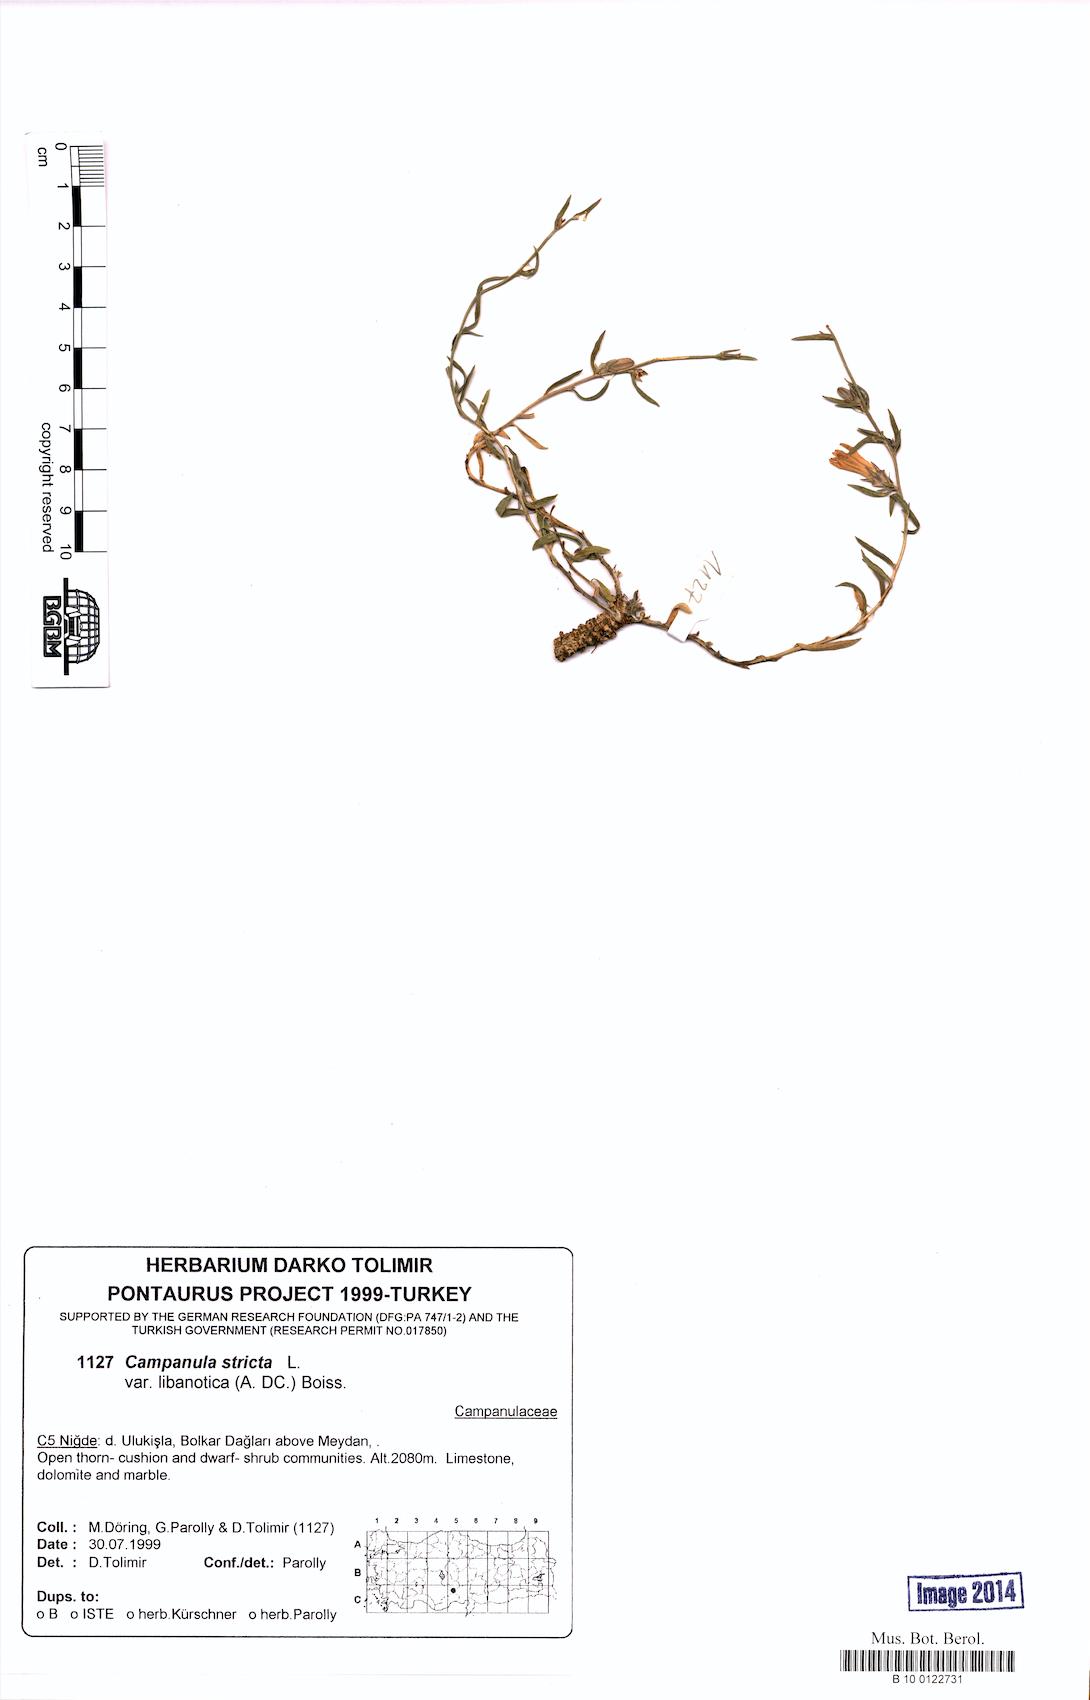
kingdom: Plantae
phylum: Tracheophyta
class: Magnoliopsida
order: Asterales
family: Campanulaceae
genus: Campanula
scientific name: Campanula stricta
